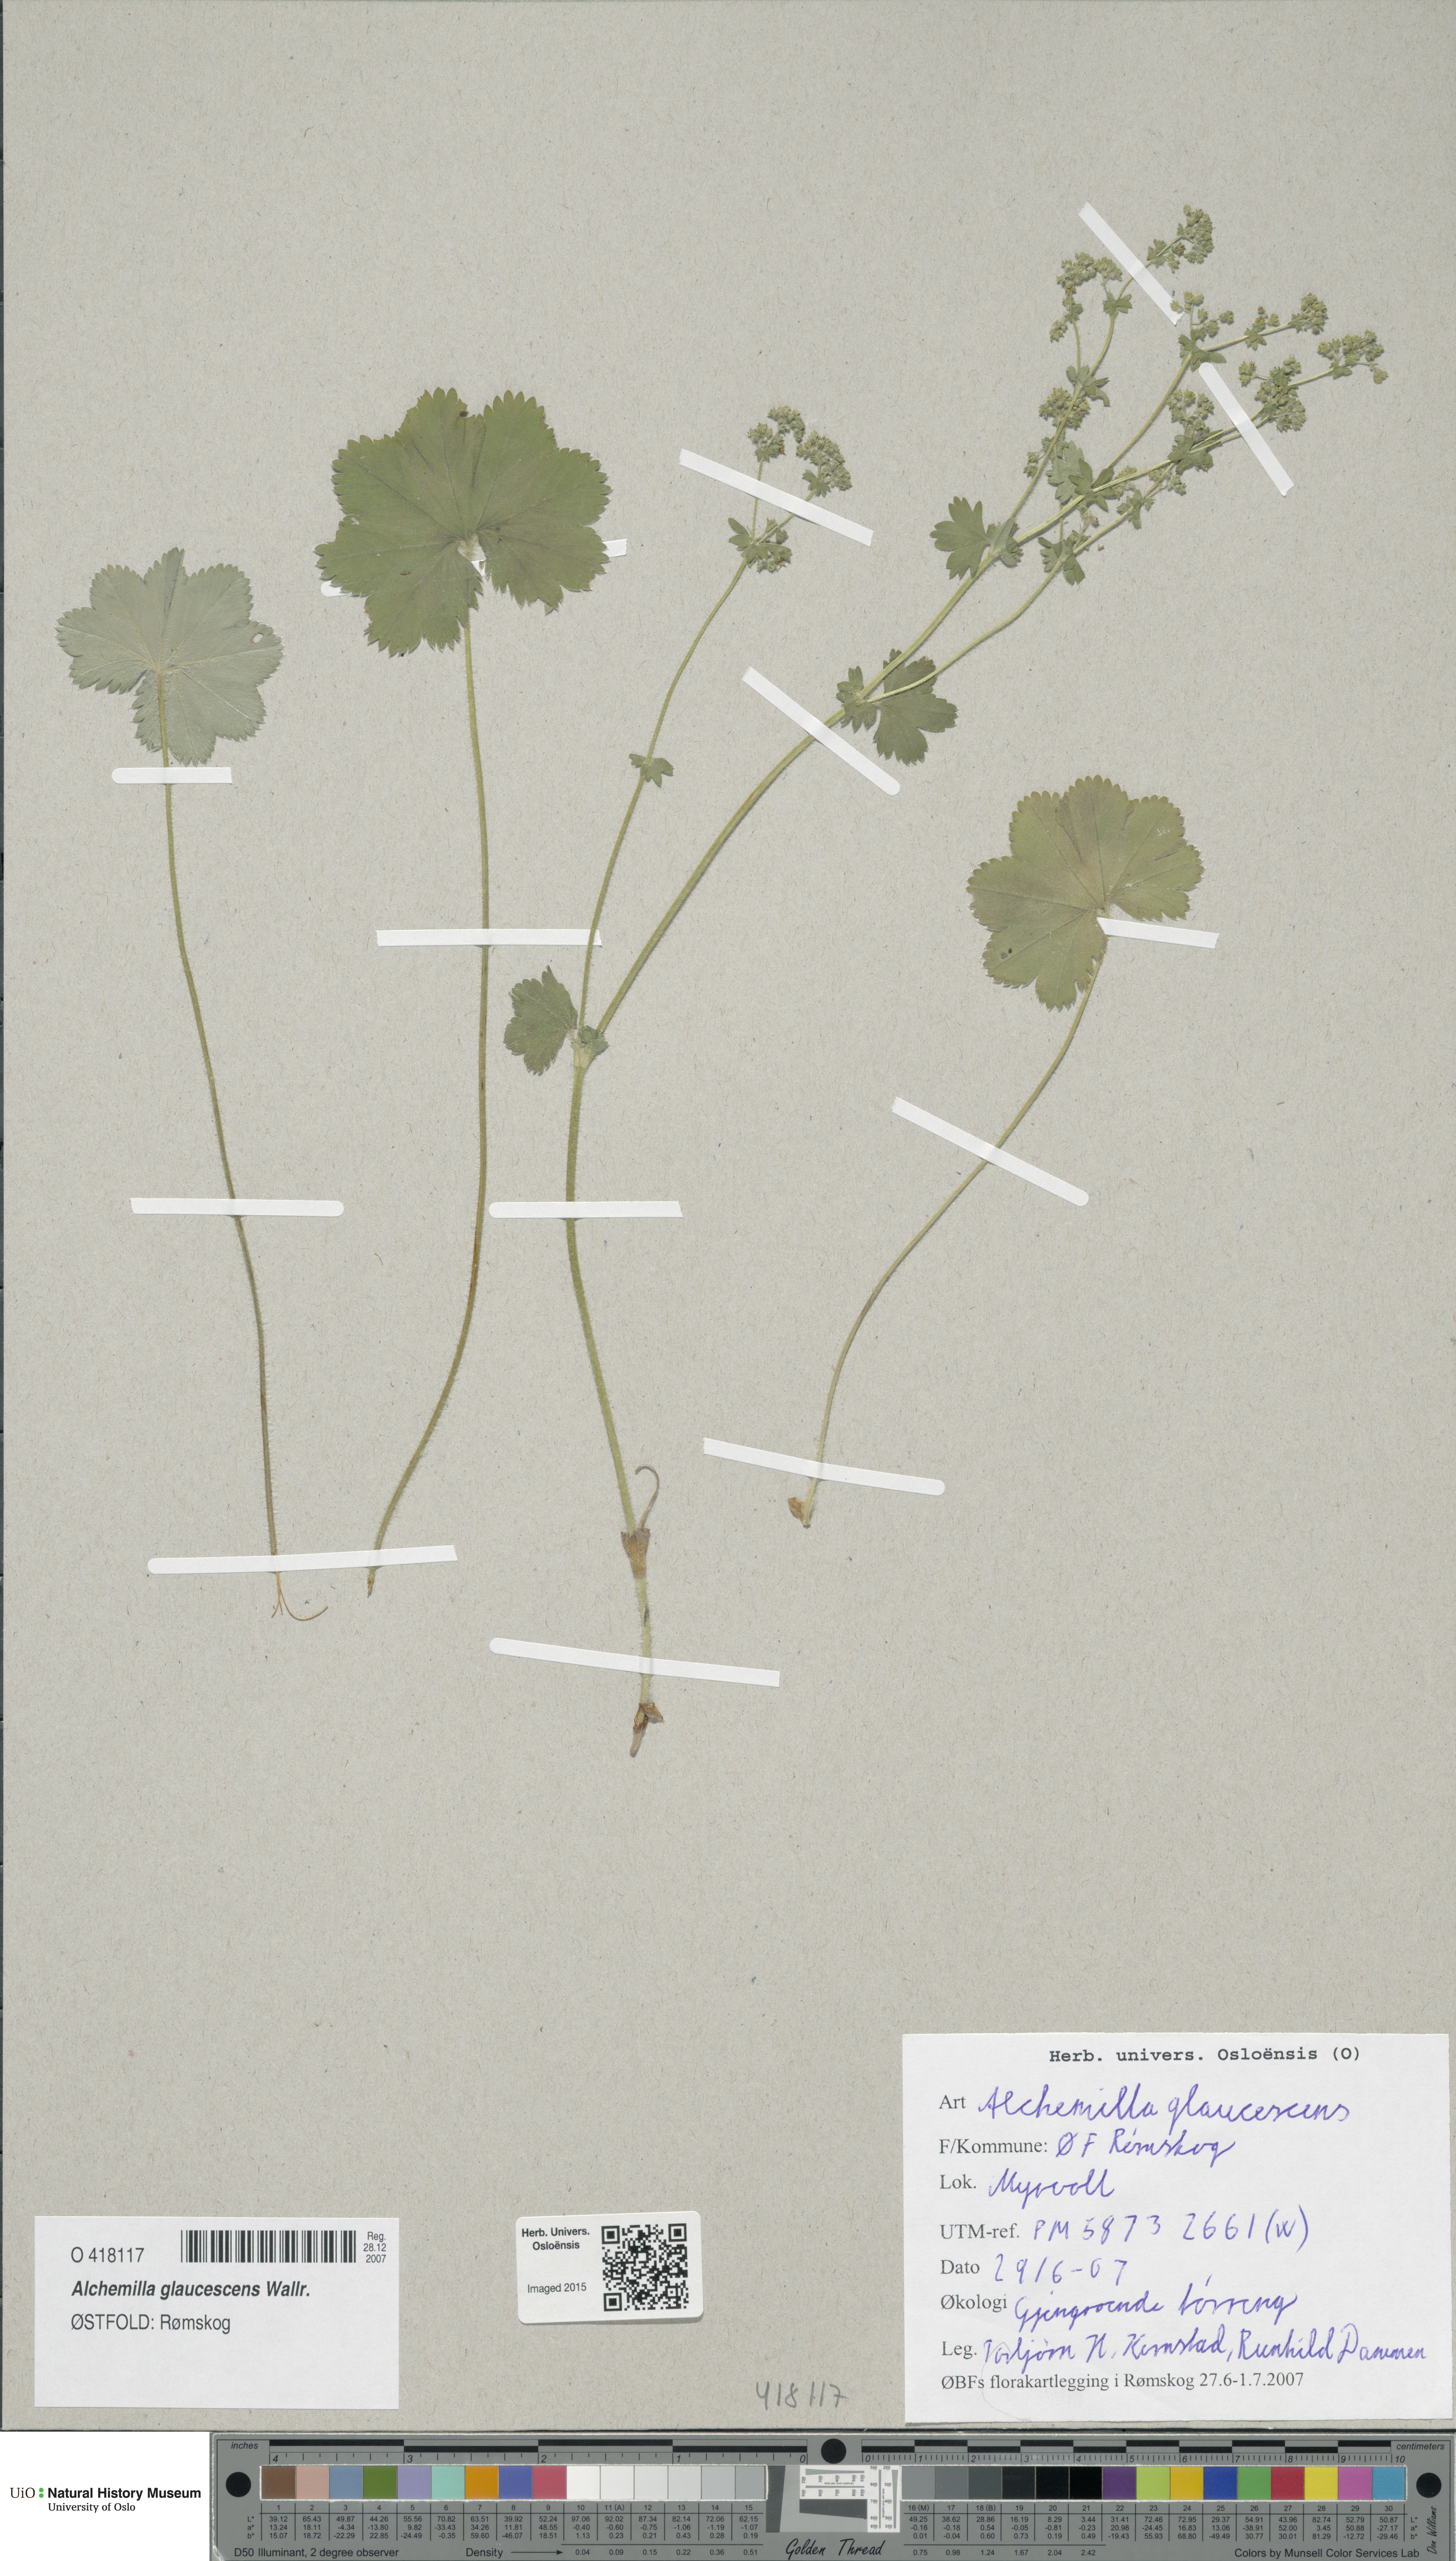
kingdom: Plantae
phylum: Tracheophyta
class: Magnoliopsida
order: Rosales
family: Rosaceae
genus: Alchemilla
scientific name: Alchemilla glaucescens
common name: Silky lady's mantle
